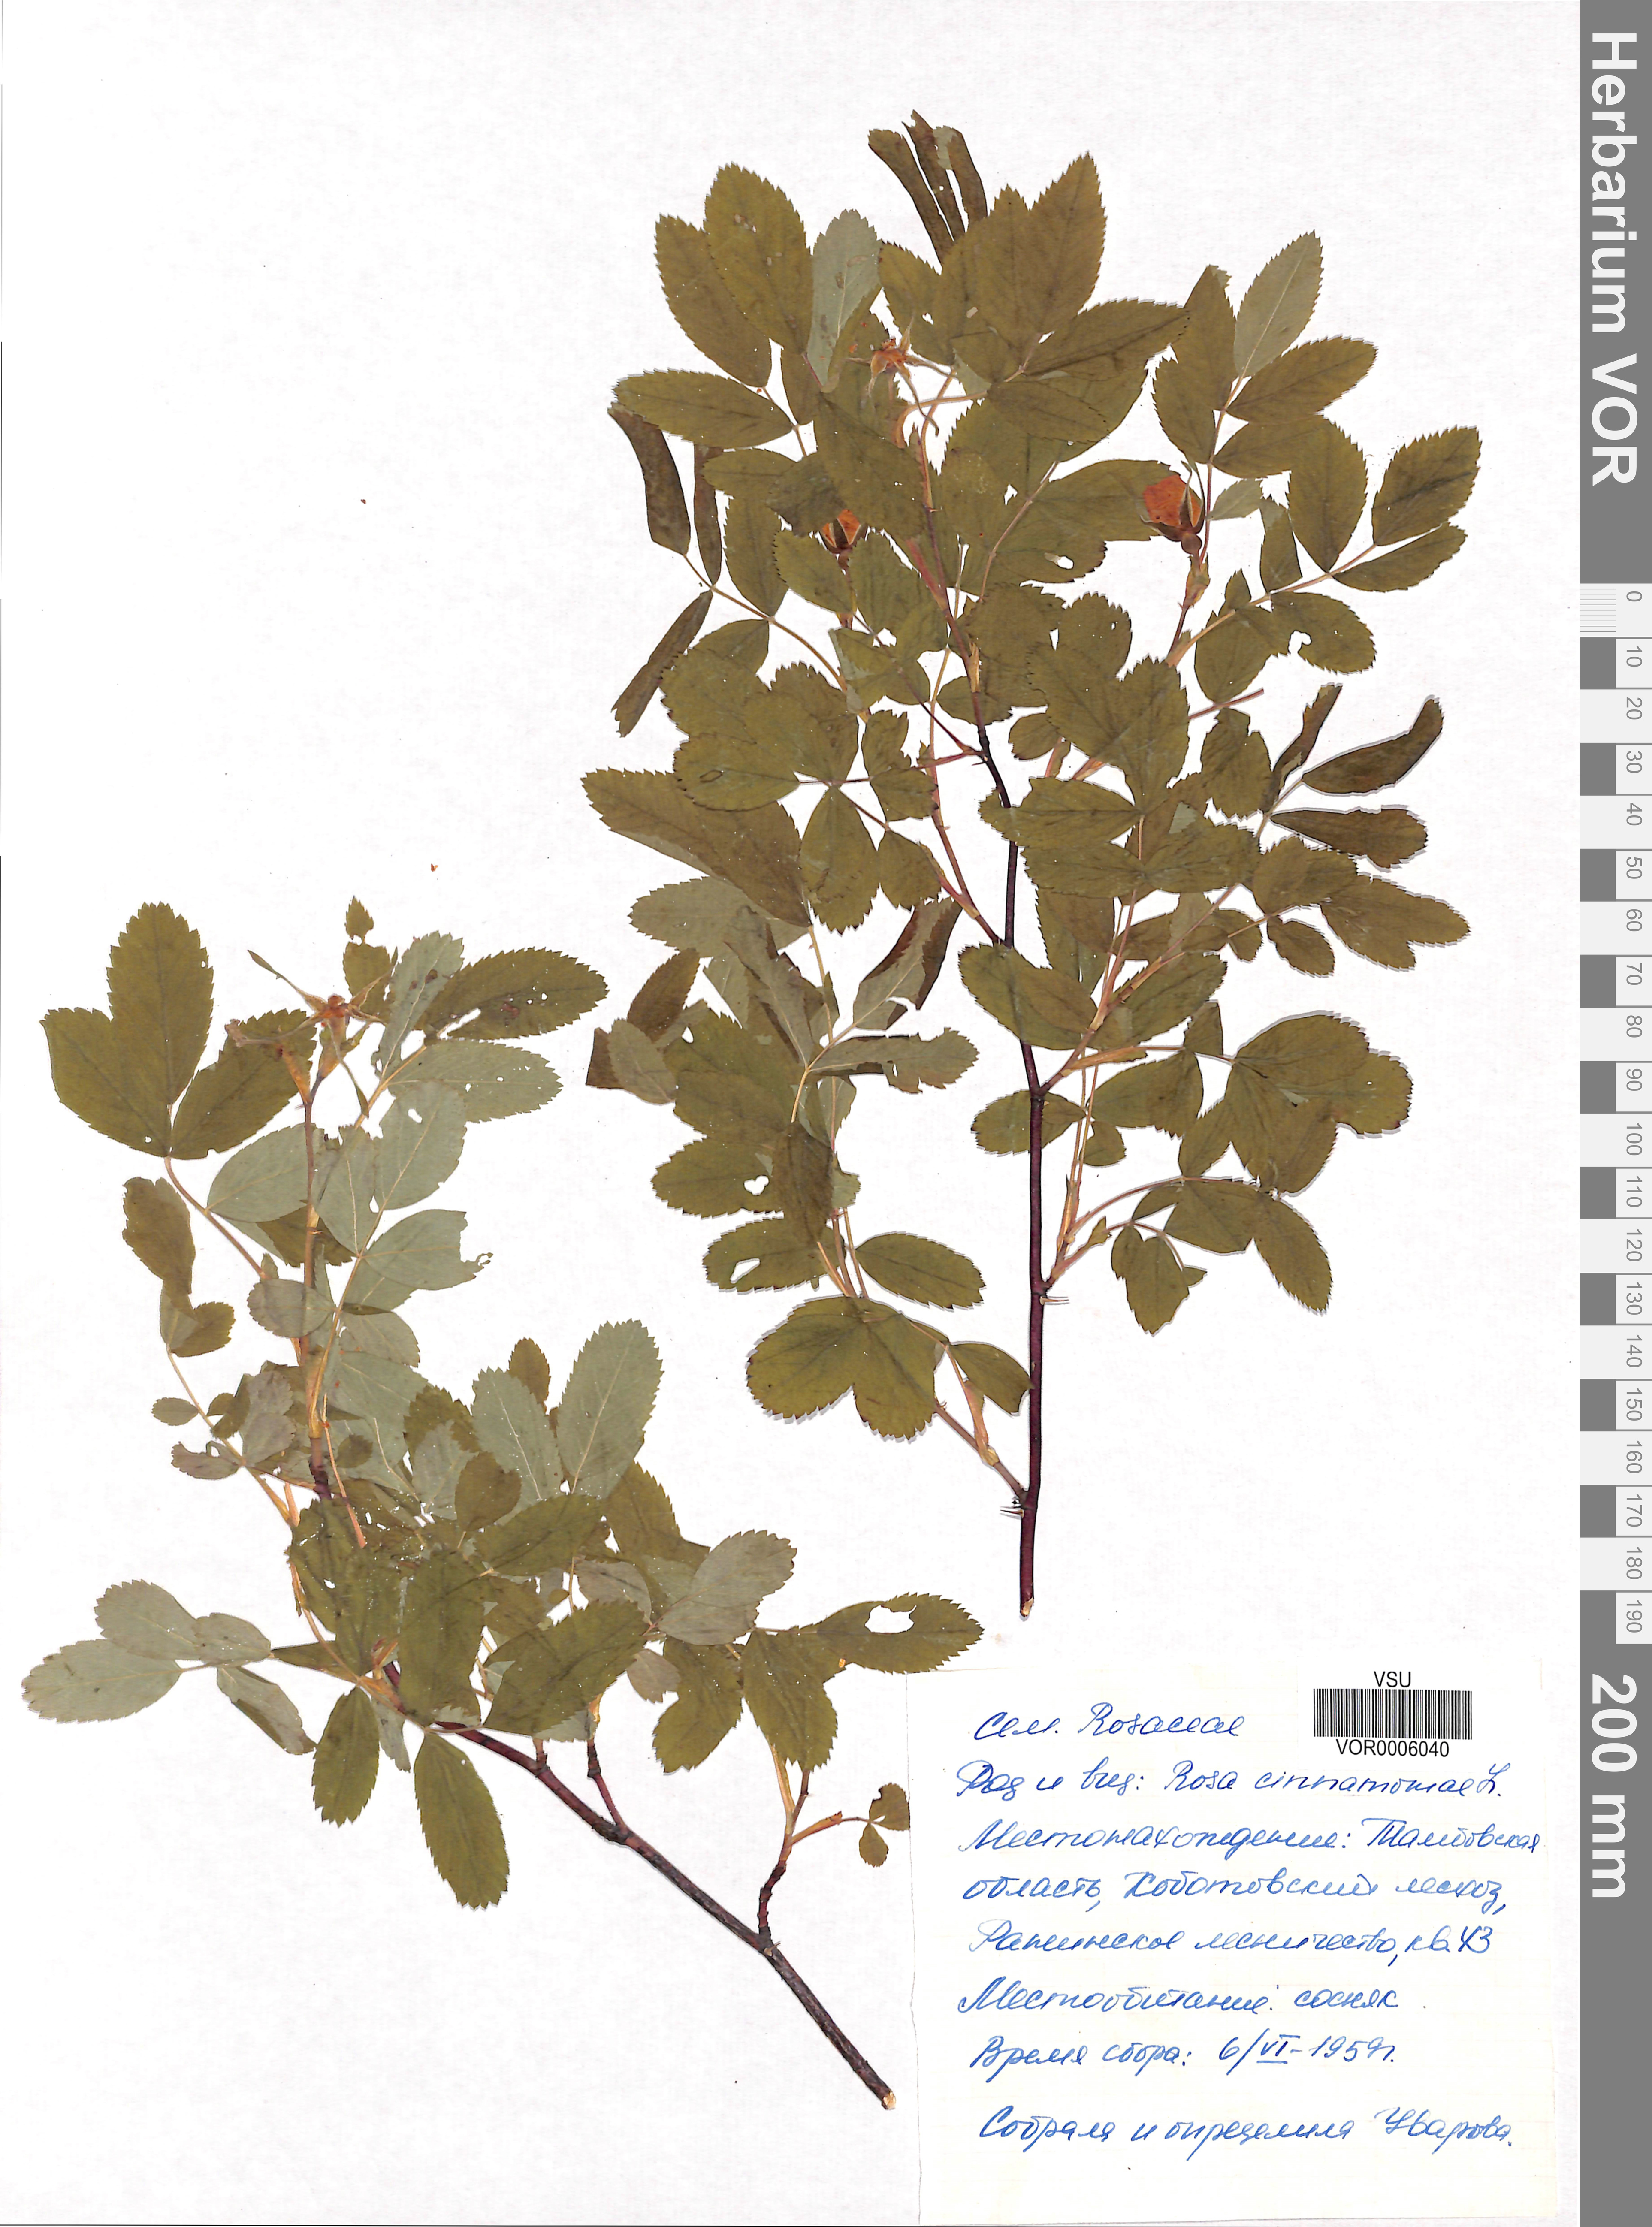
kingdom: Plantae
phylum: Tracheophyta
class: Magnoliopsida
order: Rosales
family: Rosaceae
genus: Rosa
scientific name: Rosa majalis
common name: Cinnamon rose
